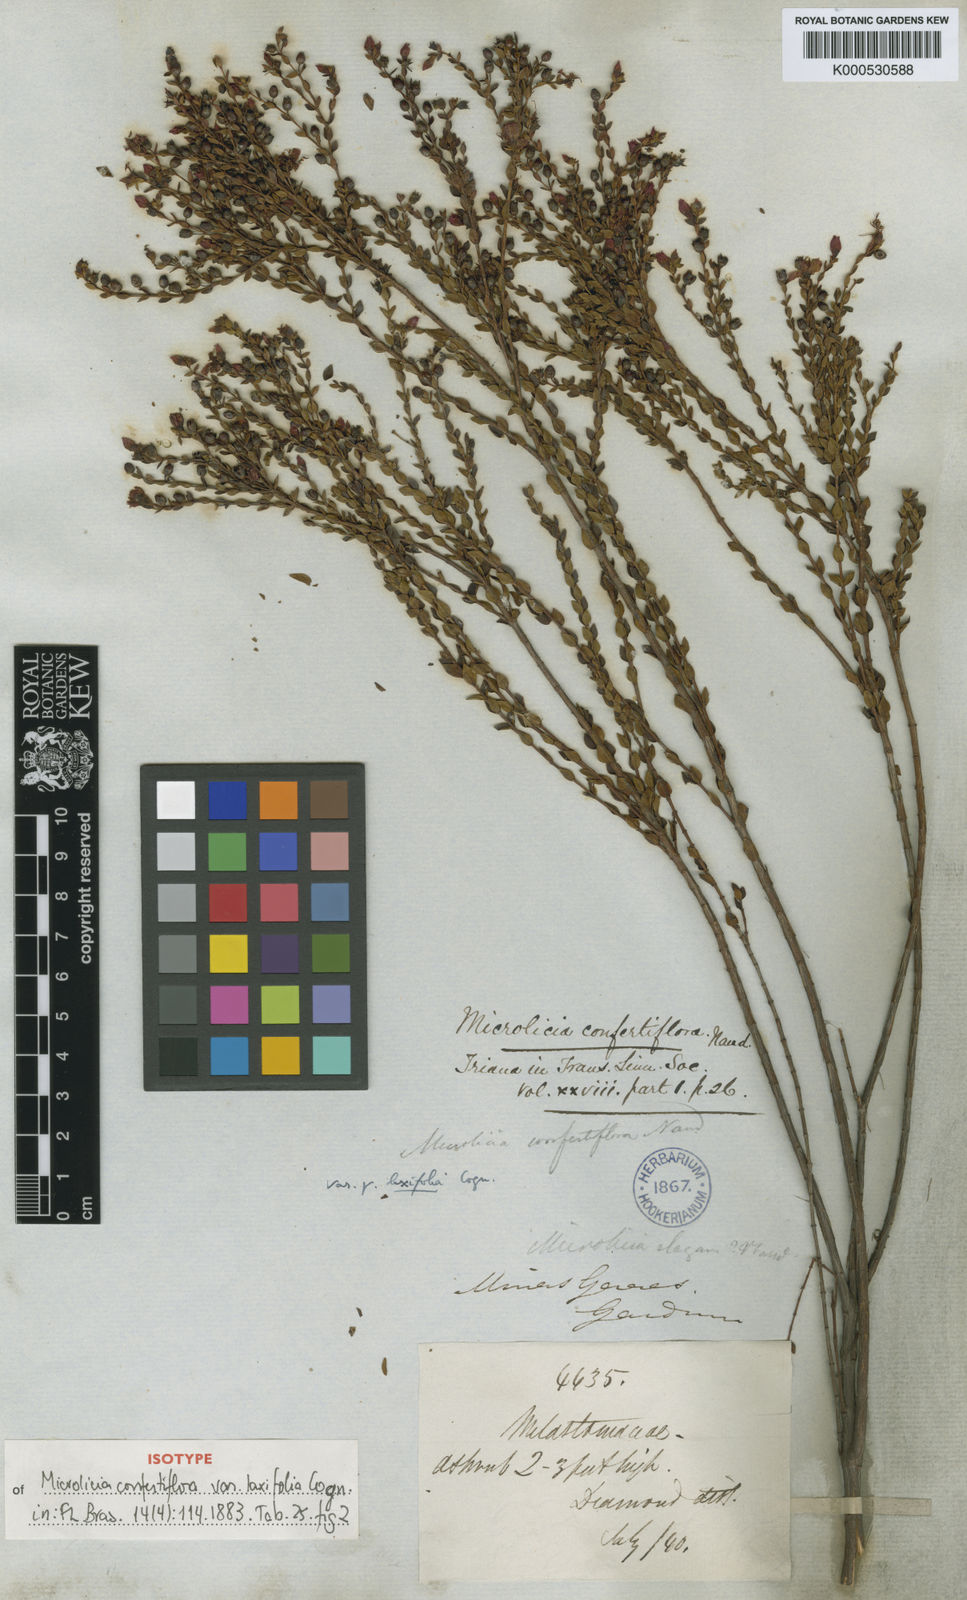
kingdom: Plantae
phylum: Tracheophyta
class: Magnoliopsida
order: Myrtales
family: Melastomataceae
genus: Microlicia
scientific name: Microlicia confertiflora
